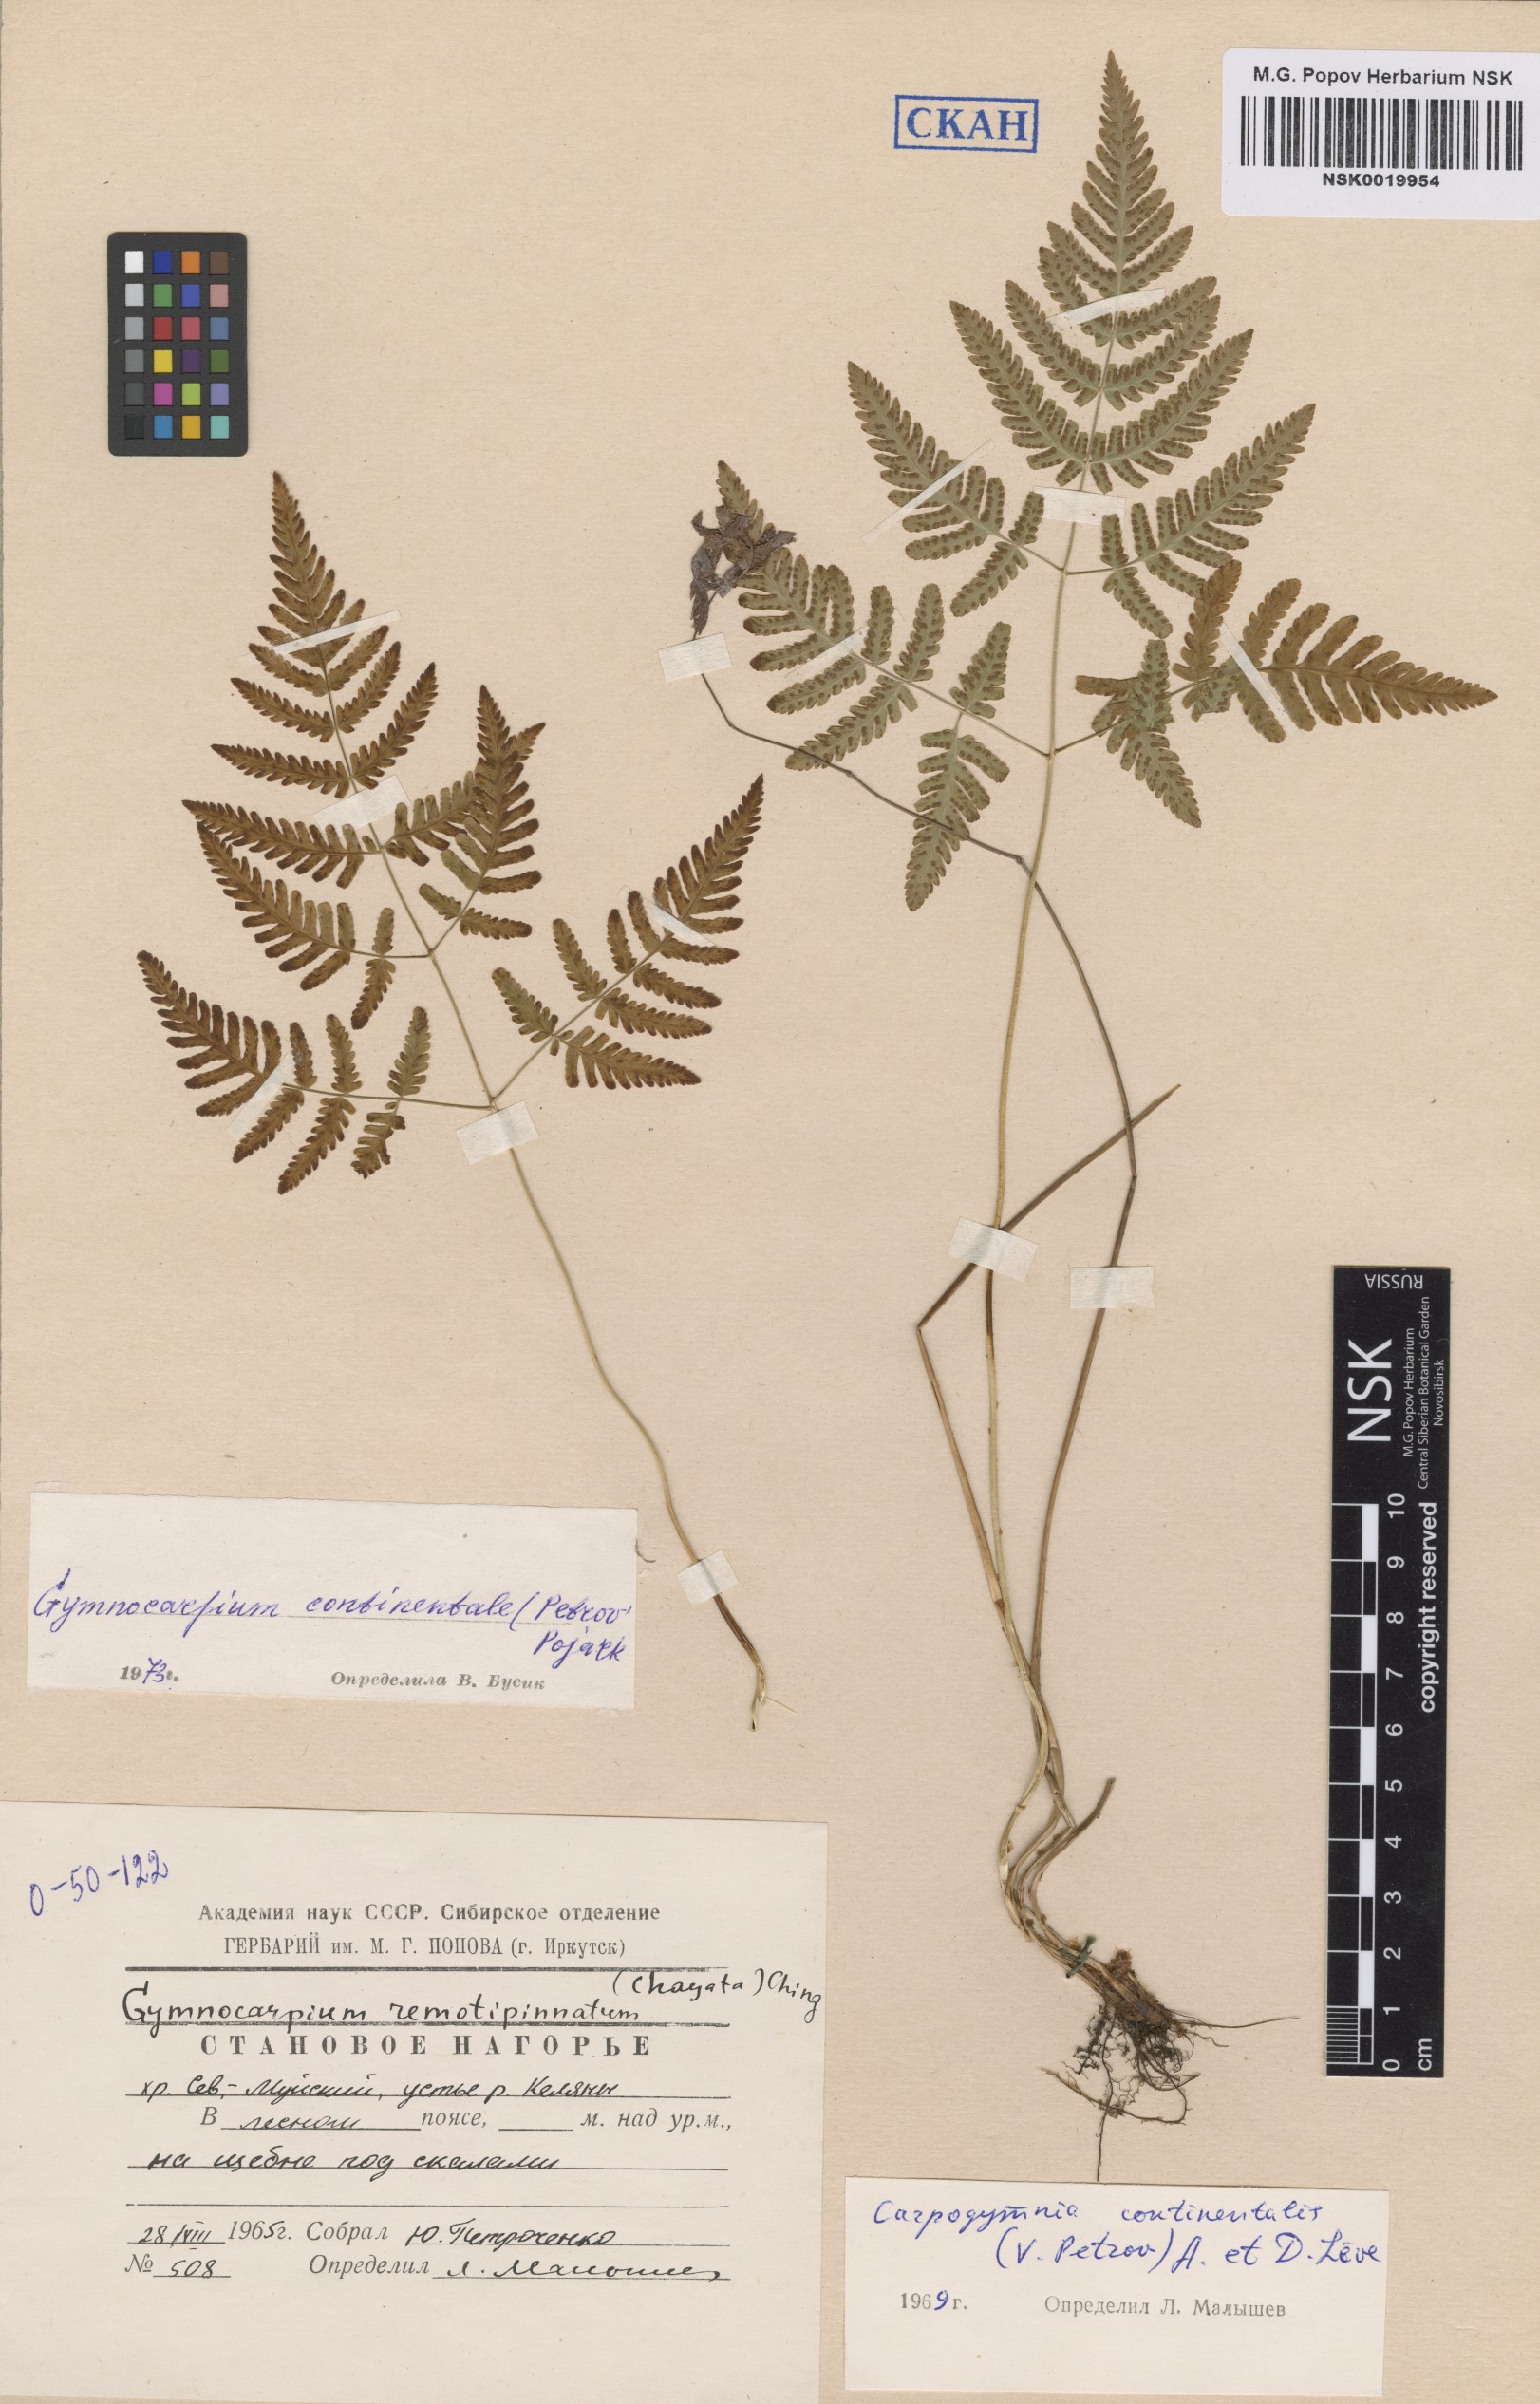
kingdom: Plantae
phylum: Tracheophyta
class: Polypodiopsida
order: Polypodiales
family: Cystopteridaceae
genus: Gymnocarpium
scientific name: Gymnocarpium continentale
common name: Asian oak fern
